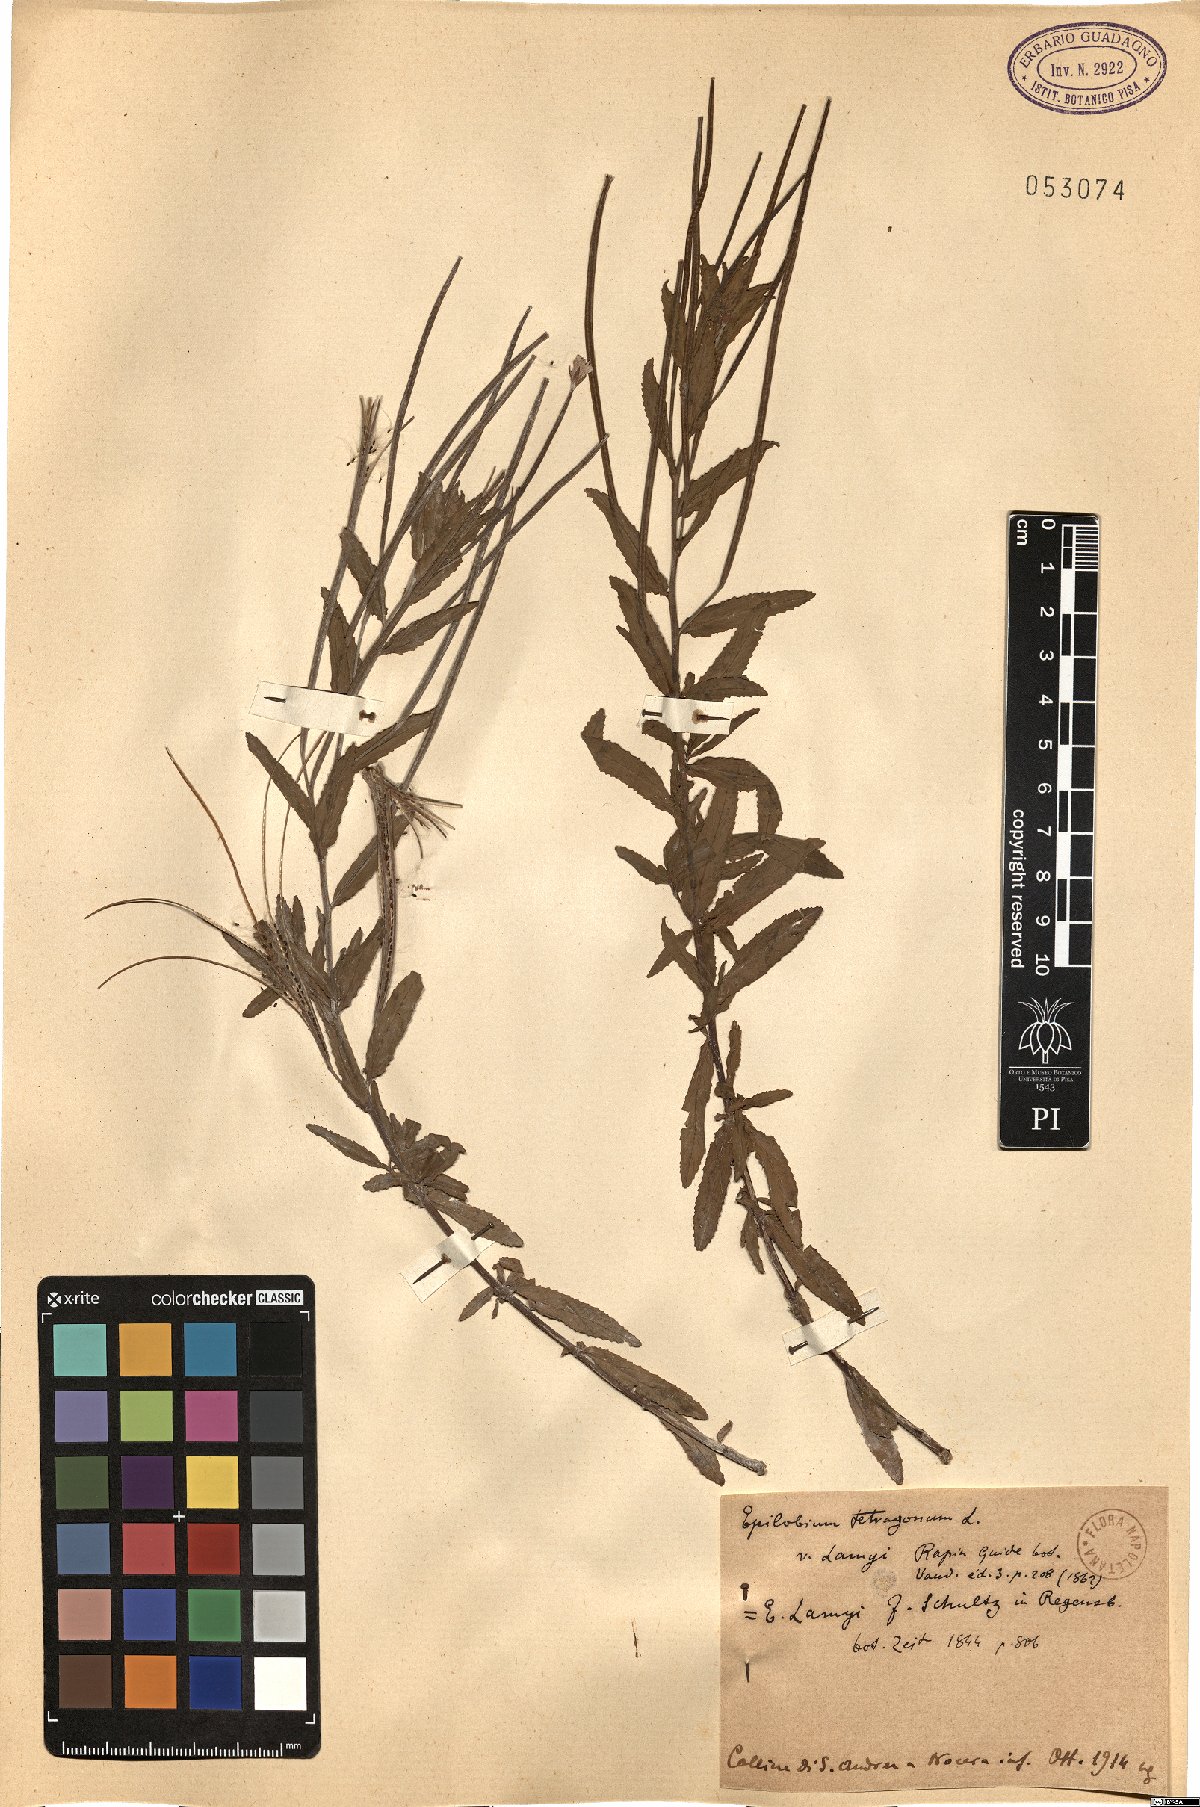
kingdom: Plantae
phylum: Tracheophyta
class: Magnoliopsida
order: Myrtales
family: Onagraceae
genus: Epilobium
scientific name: Epilobium lamyi
